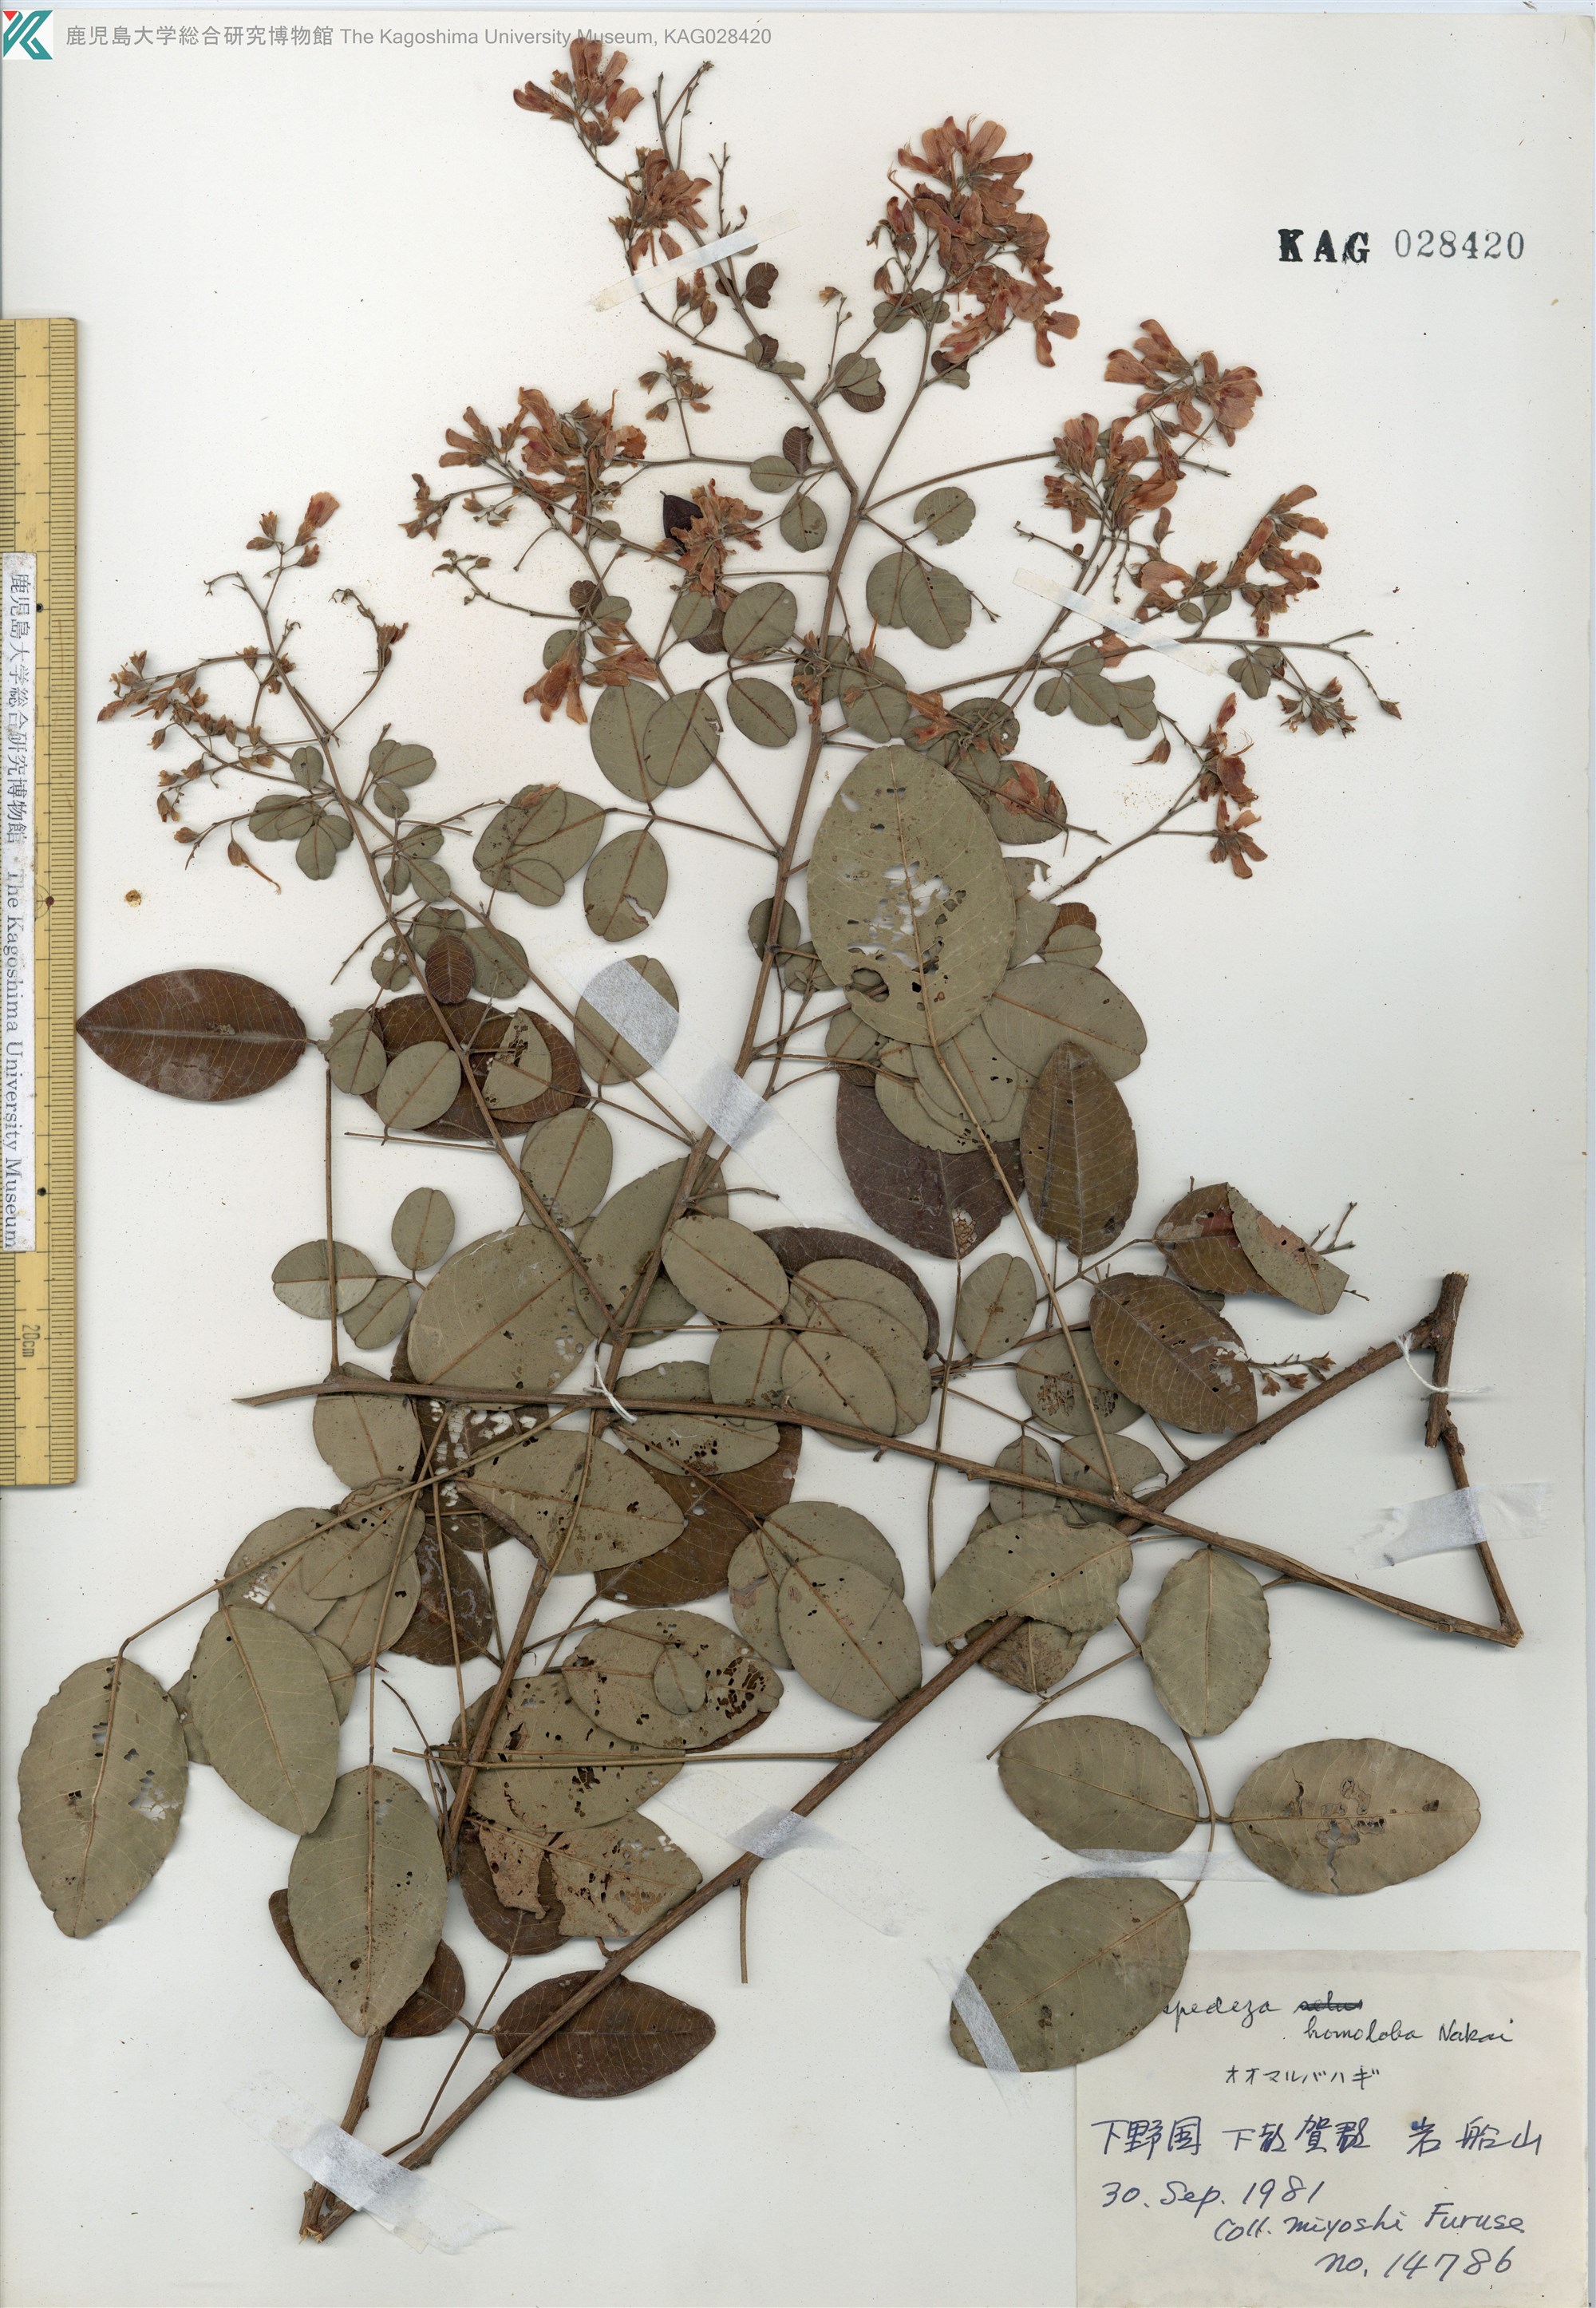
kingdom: Plantae
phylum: Tracheophyta
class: Magnoliopsida
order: Fabales
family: Fabaceae
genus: Lespedeza
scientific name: Lespedeza homoloba
